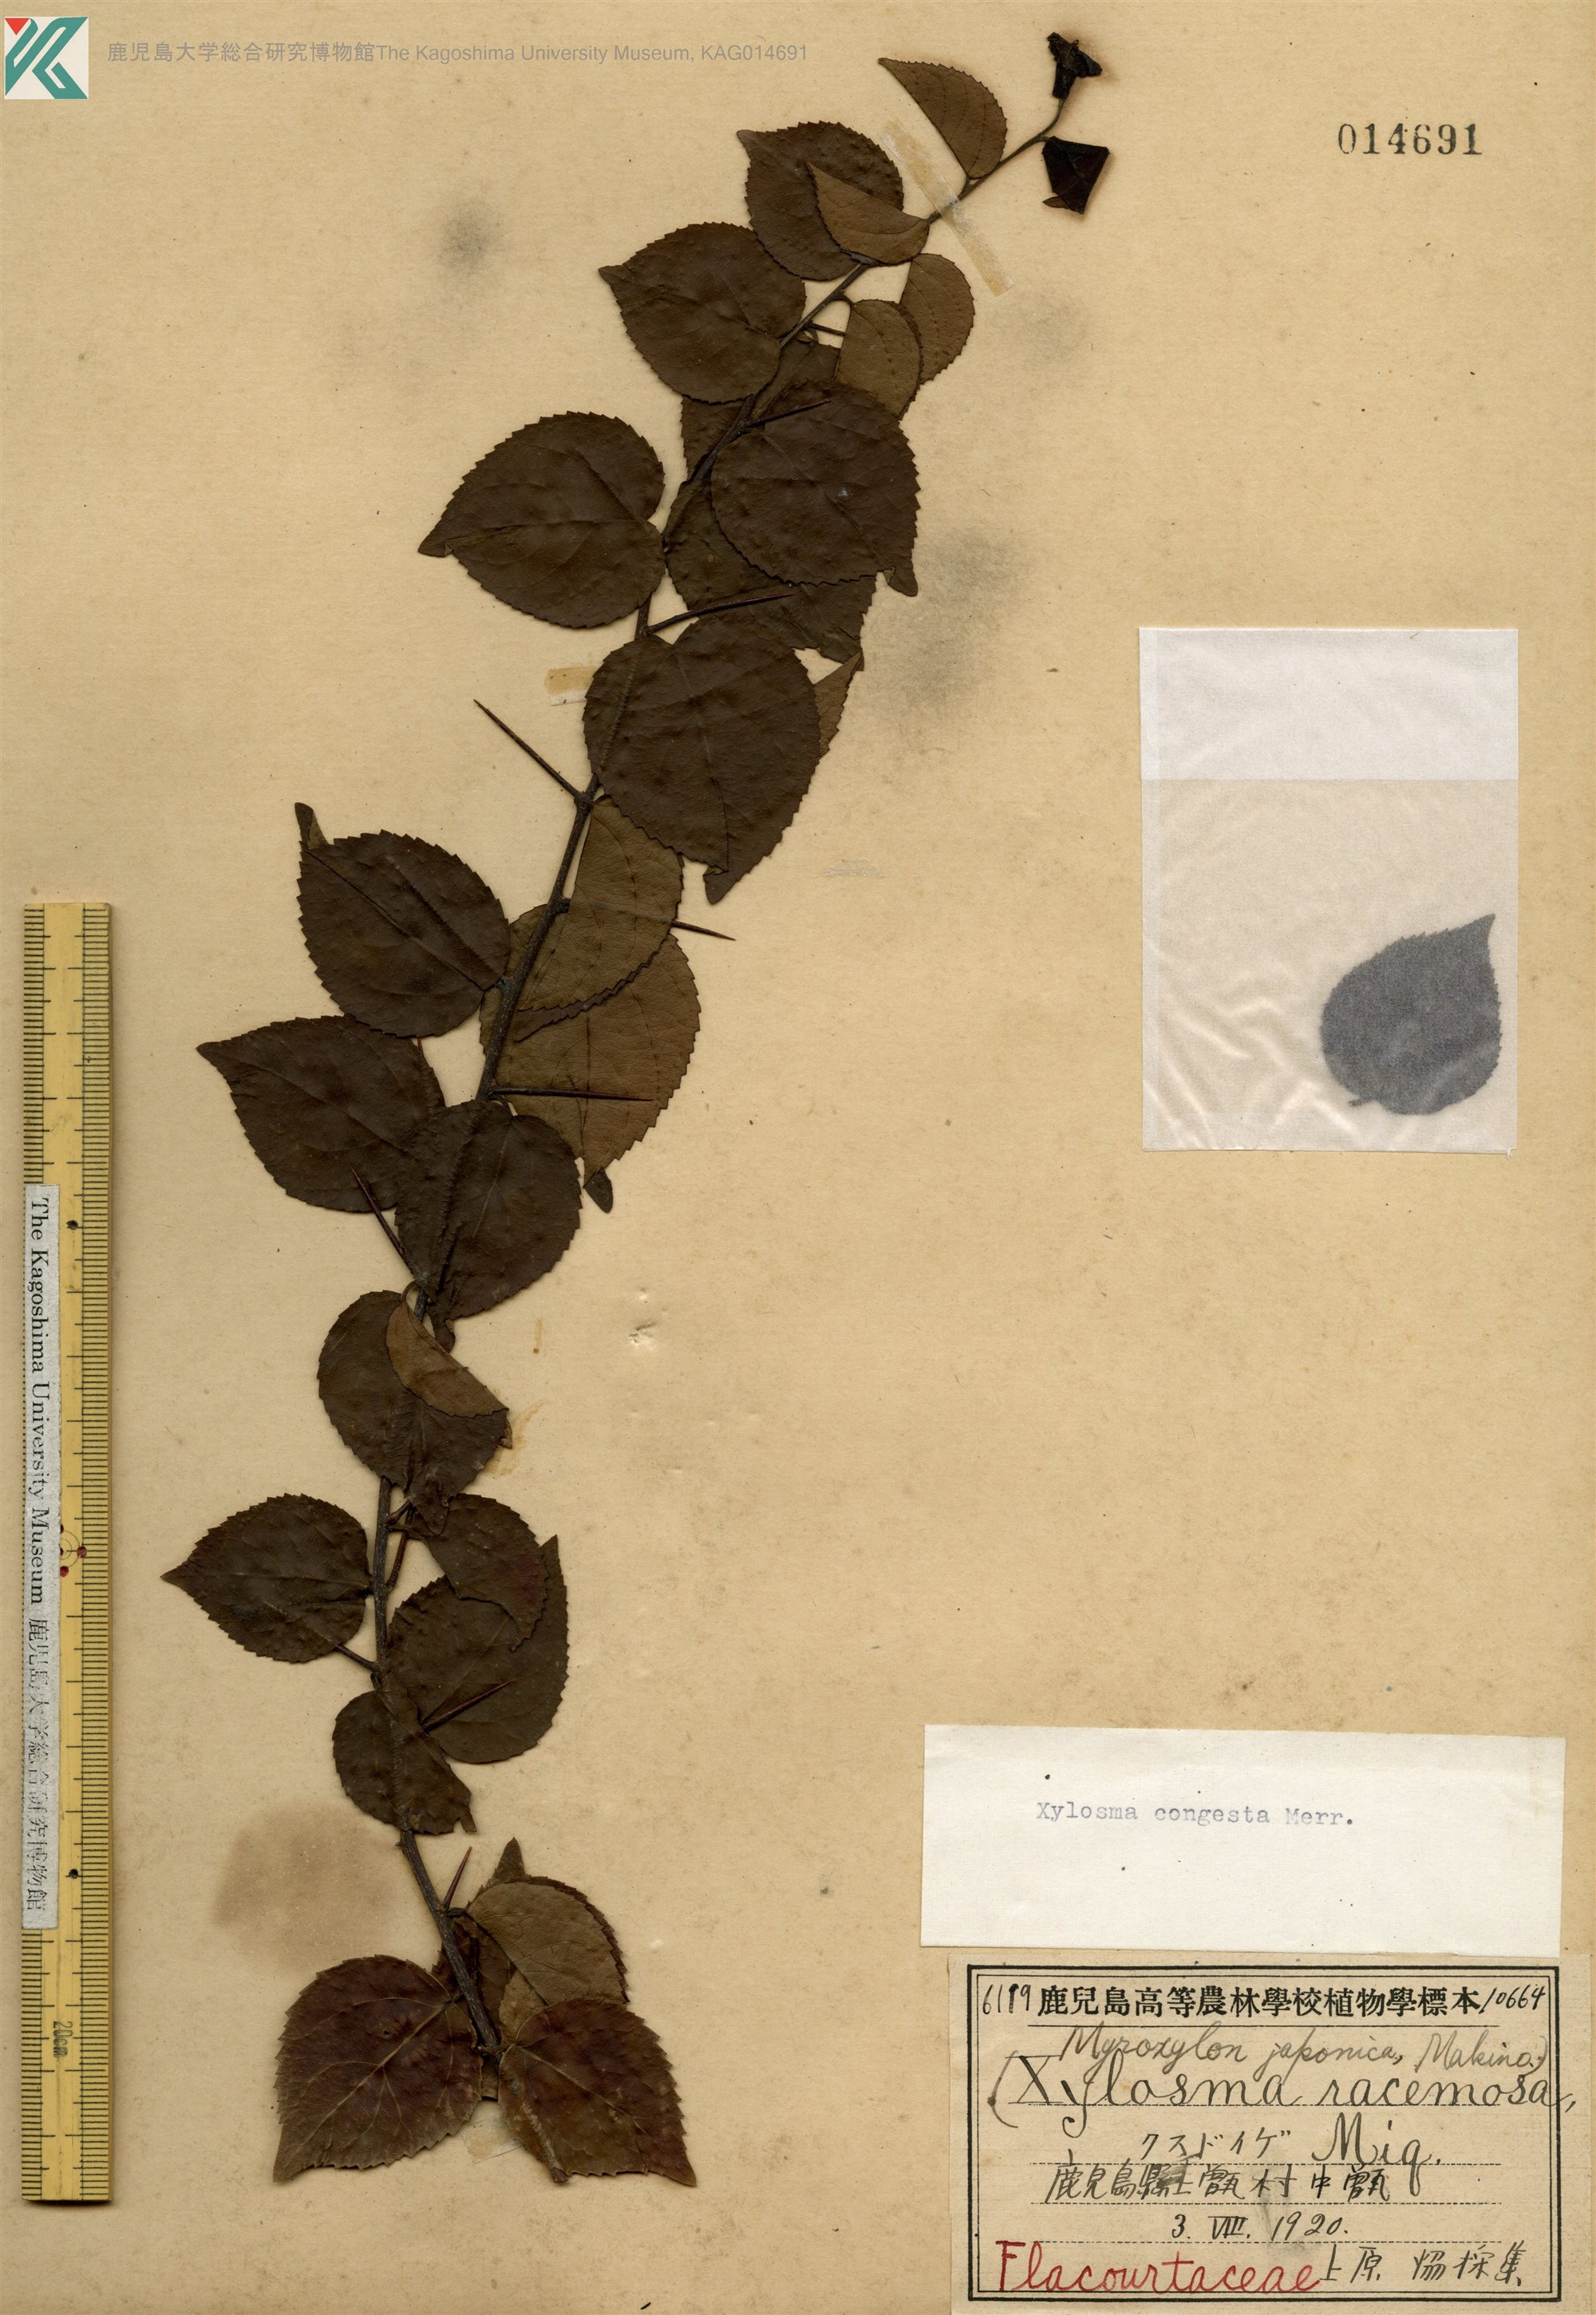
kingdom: Plantae
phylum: Tracheophyta
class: Magnoliopsida
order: Malpighiales
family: Salicaceae
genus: Xylosma
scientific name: Xylosma racemosum
